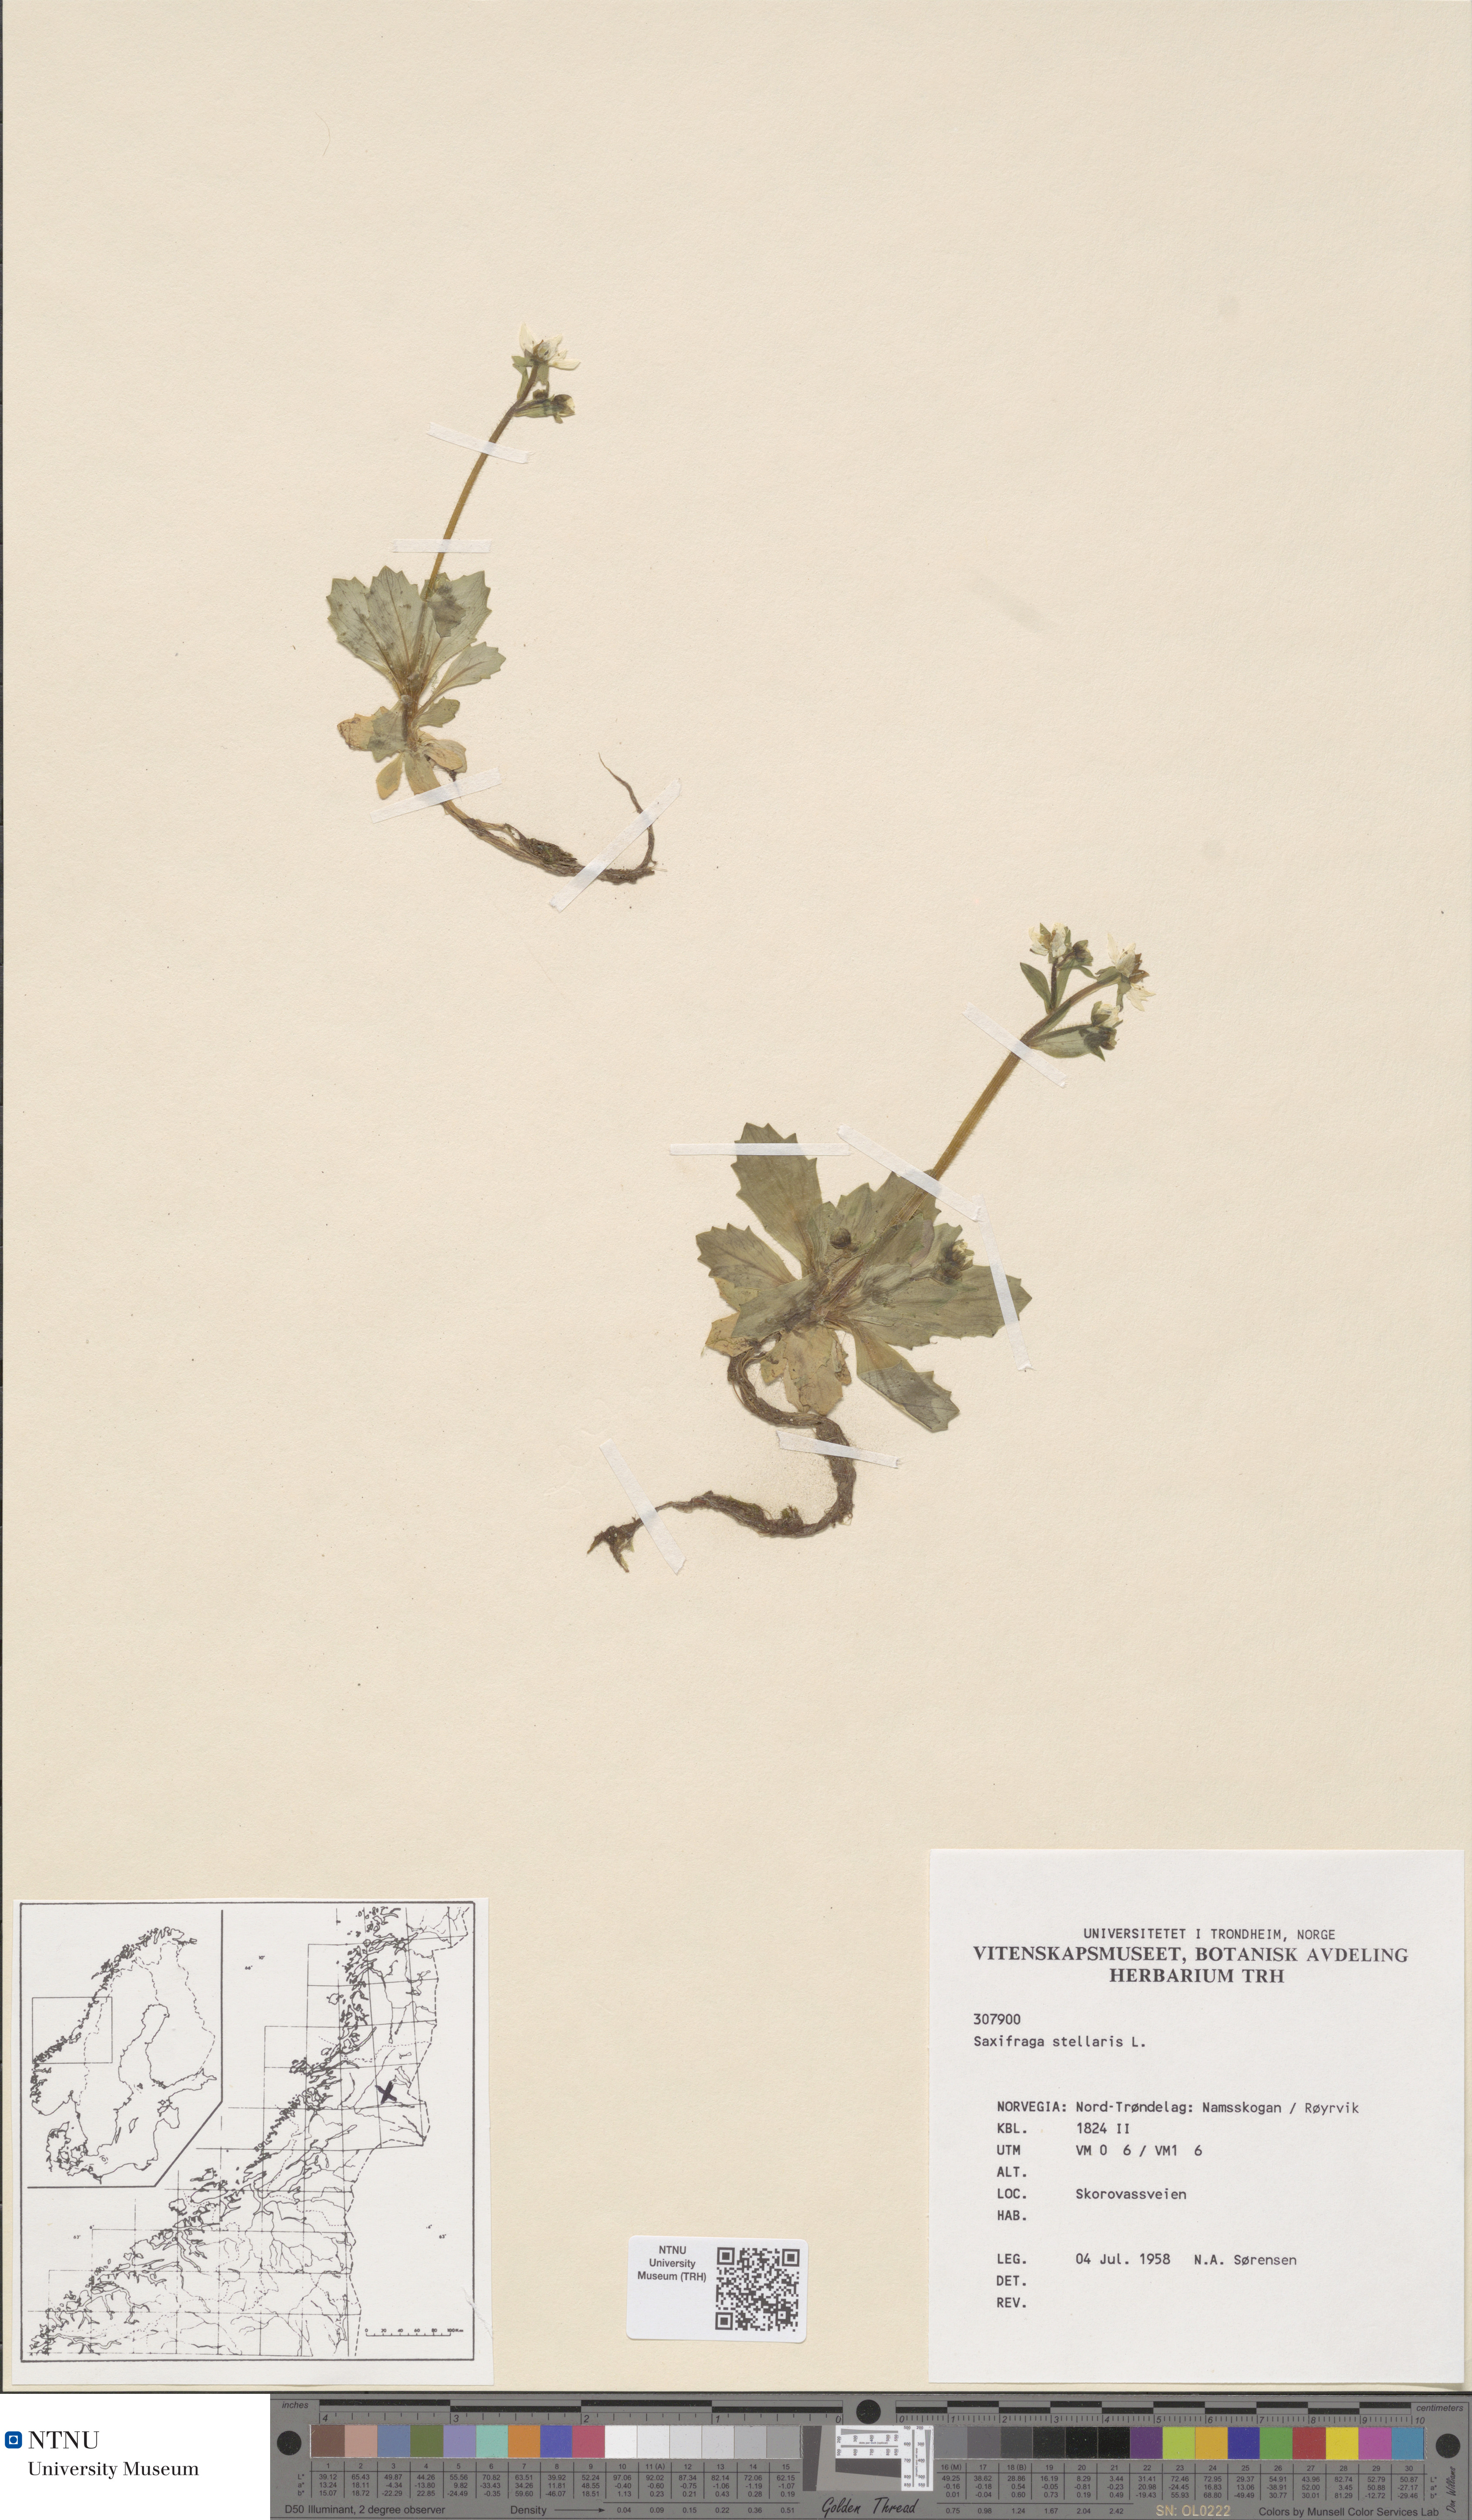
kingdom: Plantae
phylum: Tracheophyta
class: Magnoliopsida
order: Saxifragales
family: Saxifragaceae
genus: Micranthes
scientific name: Micranthes stellaris
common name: Starry saxifrage
